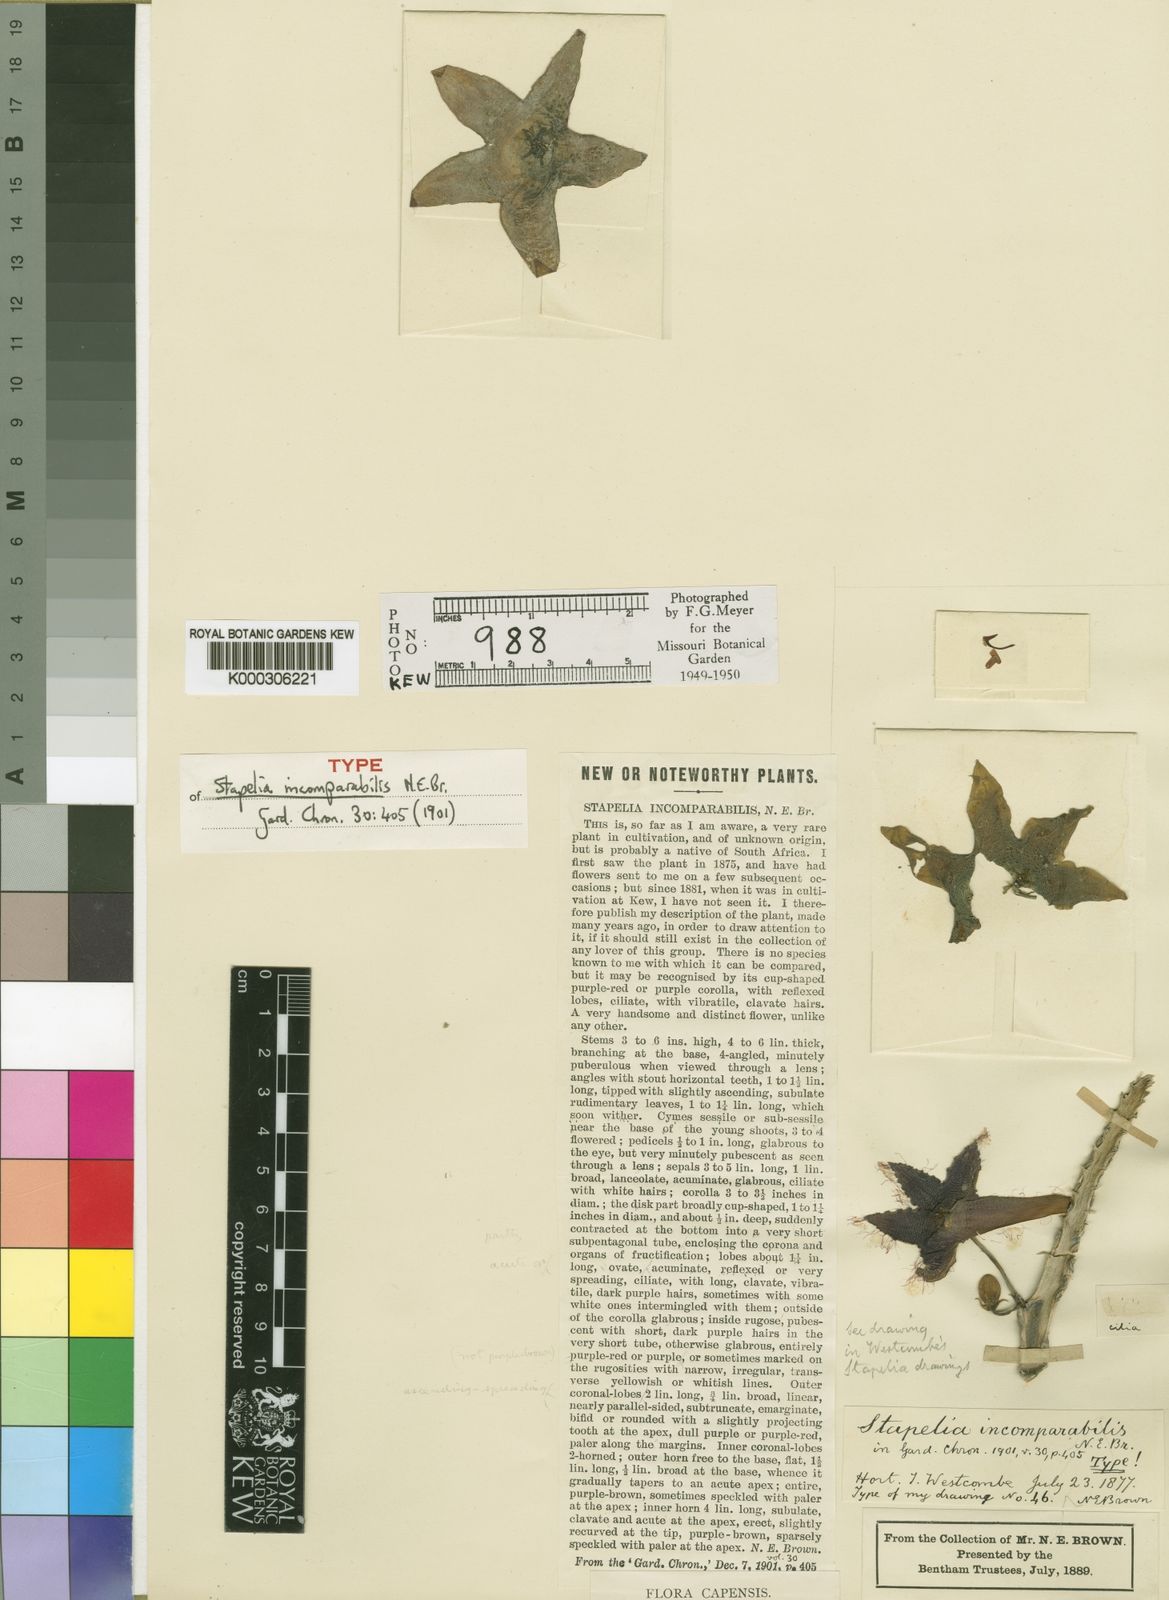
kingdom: Plantae
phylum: Tracheophyta
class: Magnoliopsida
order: Gentianales
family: Apocynaceae
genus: Stapelia
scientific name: Stapelia incomparabilis
